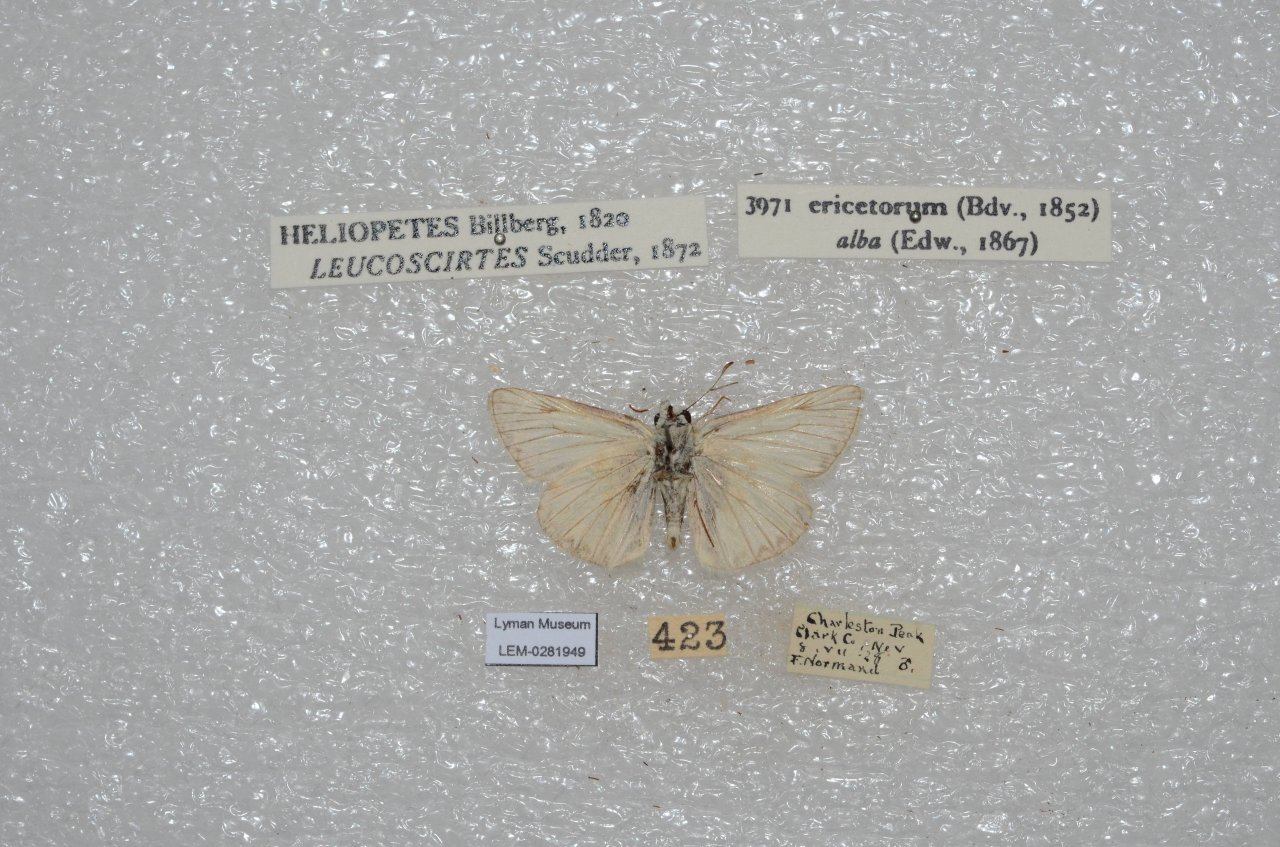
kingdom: Animalia
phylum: Arthropoda
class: Insecta
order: Lepidoptera
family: Hesperiidae
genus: Heliopetes
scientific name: Heliopetes ericetorum
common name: Northern White-Skipper
